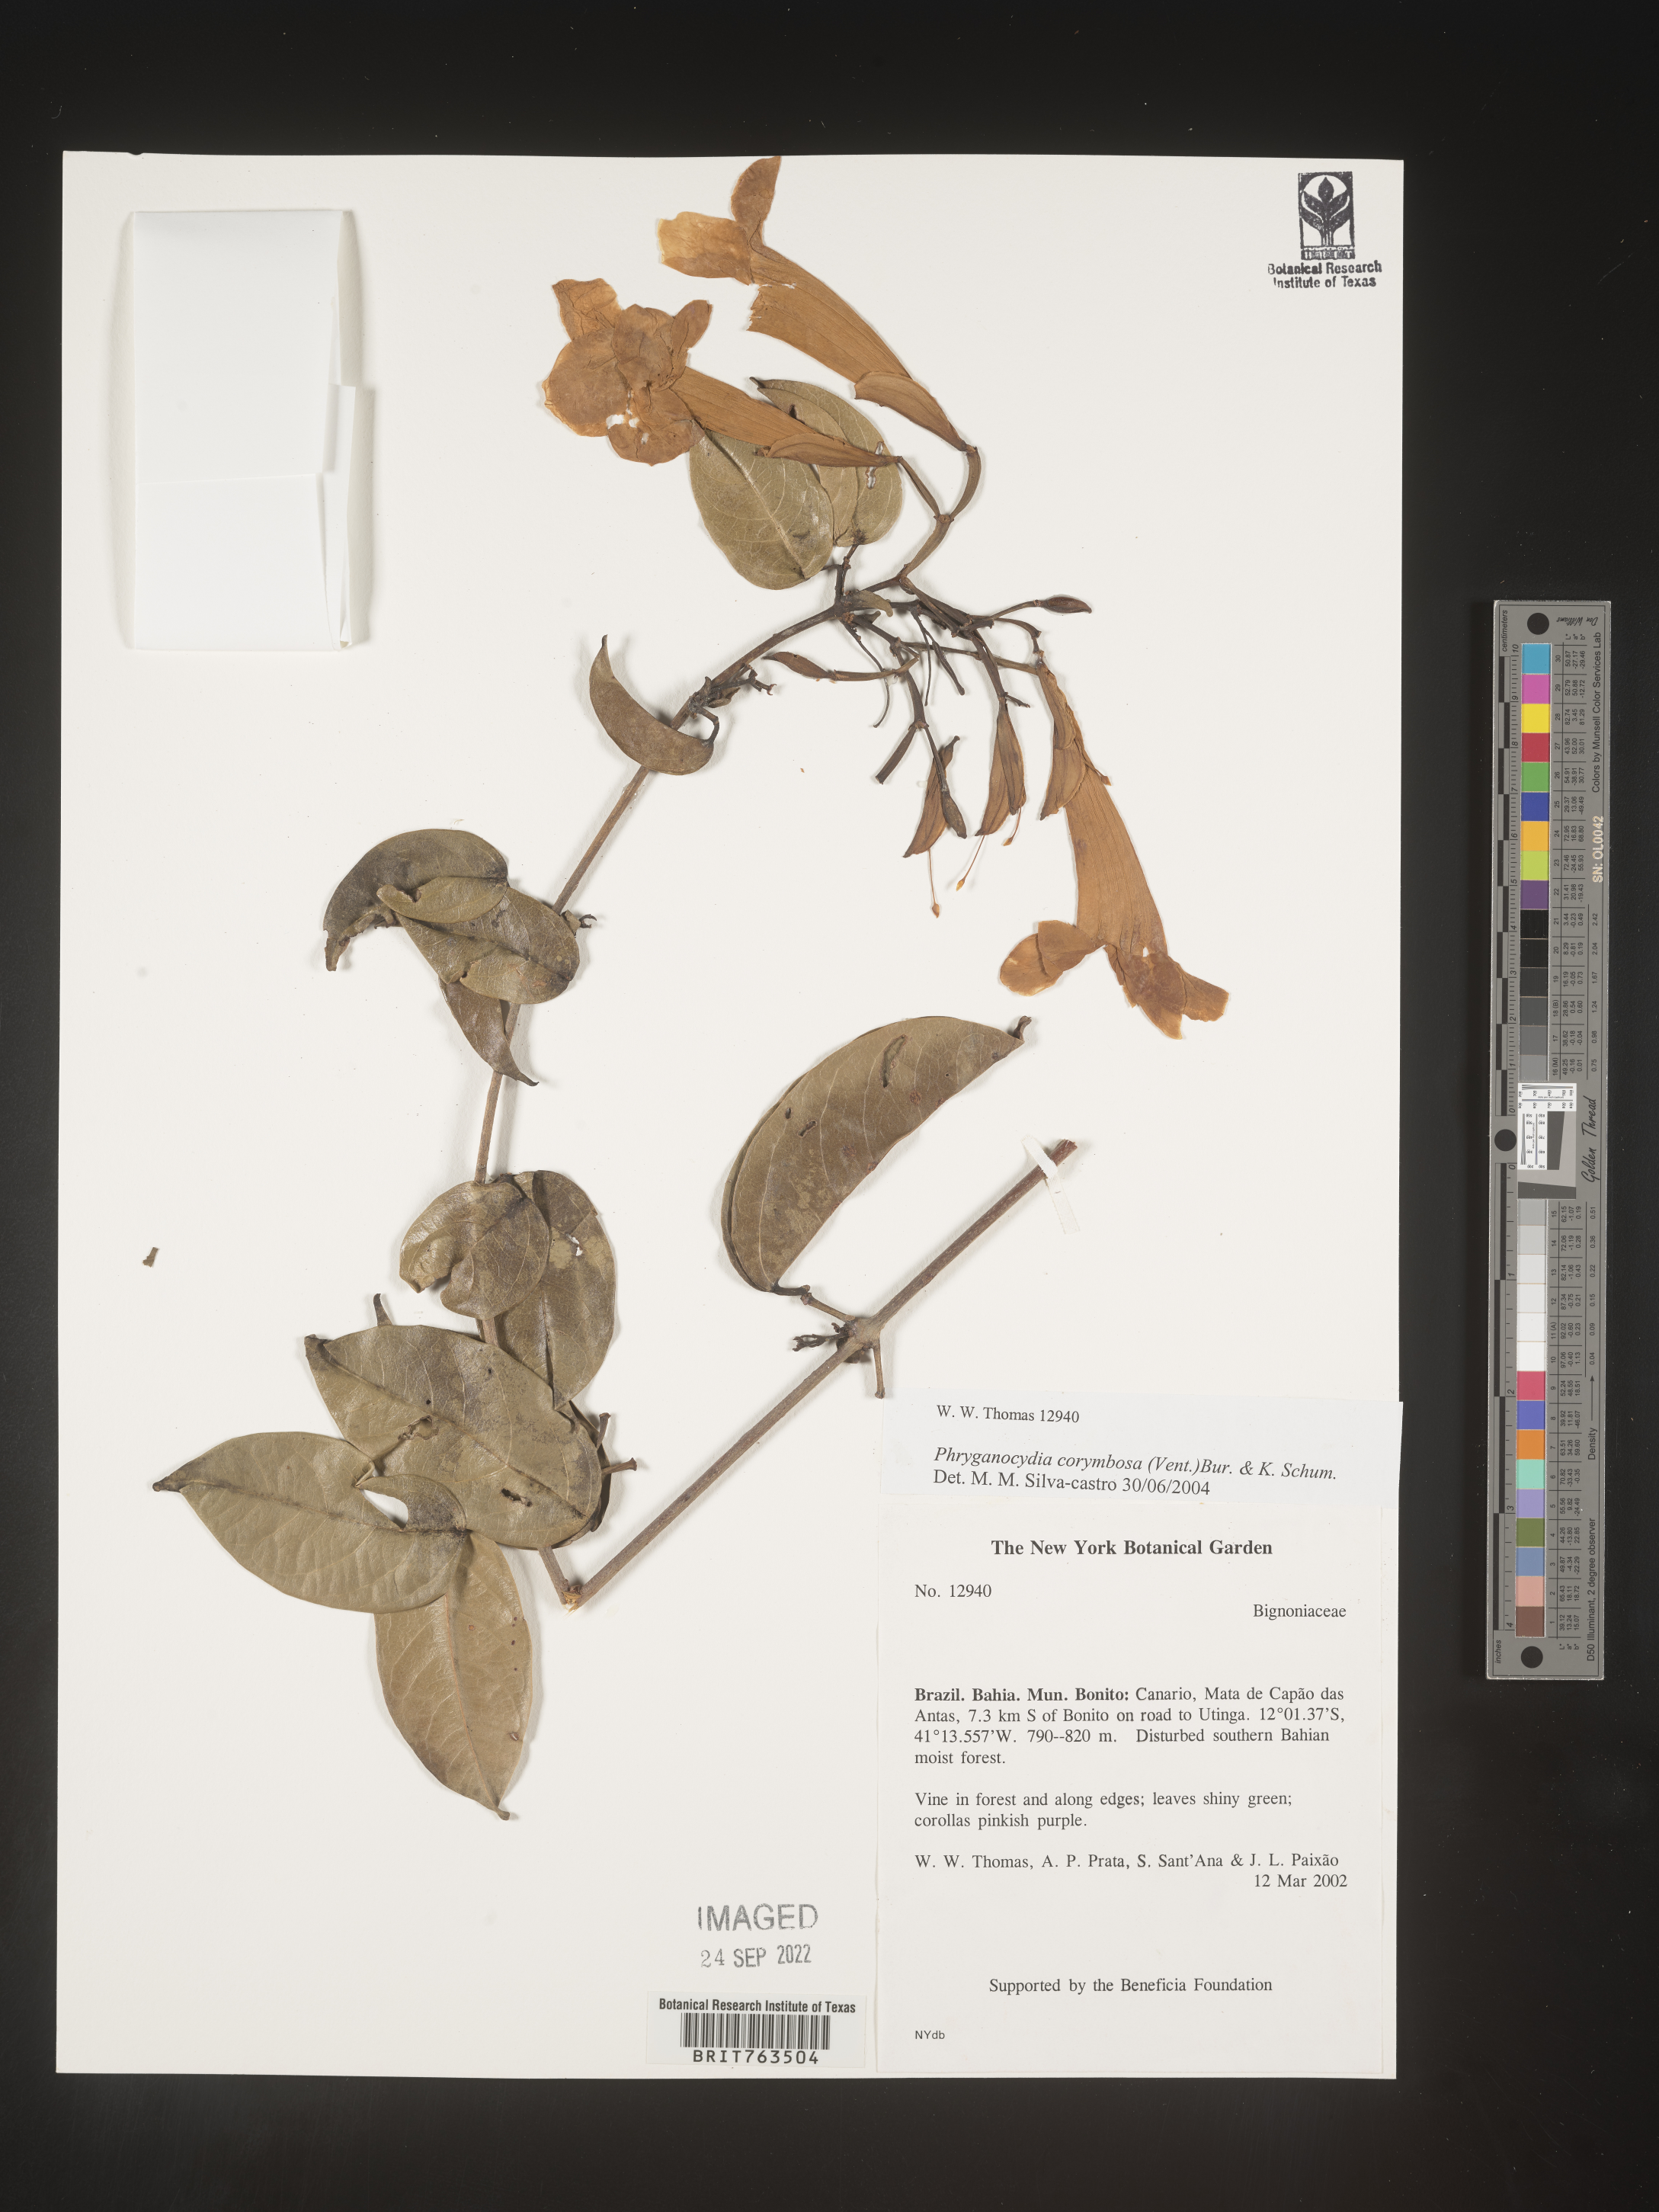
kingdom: Plantae
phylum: Tracheophyta
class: Magnoliopsida
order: Lamiales
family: Bignoniaceae
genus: Phryganocydia
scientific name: Phryganocydia
